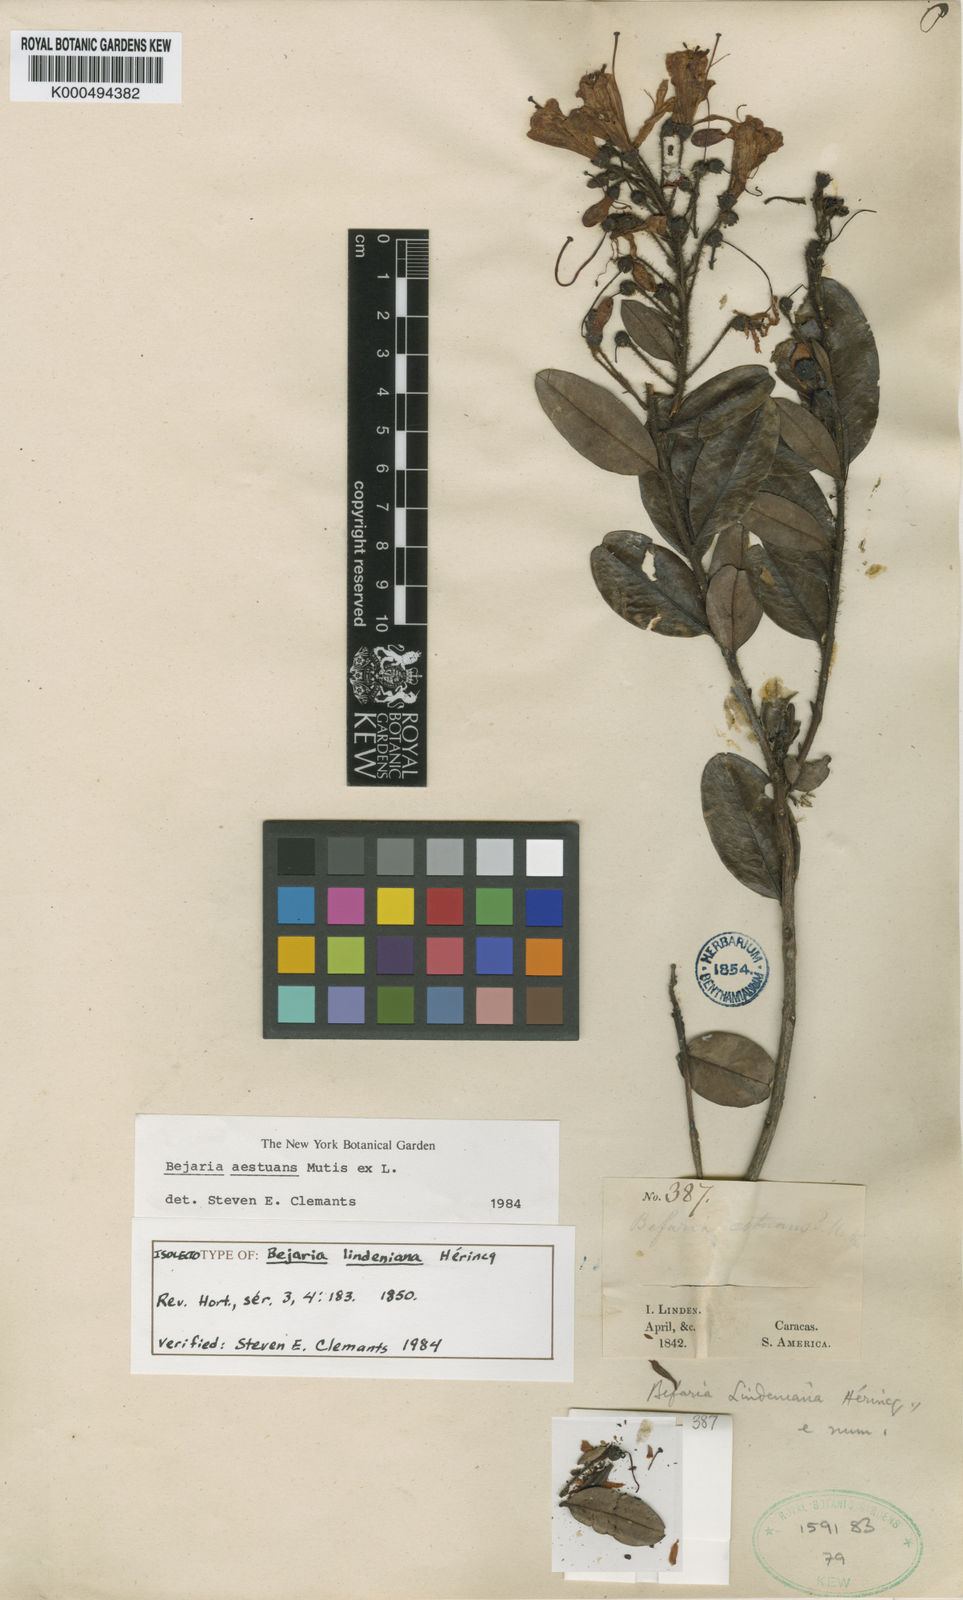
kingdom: Plantae
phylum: Tracheophyta
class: Magnoliopsida
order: Ericales
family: Ericaceae
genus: Bejaria
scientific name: Bejaria
